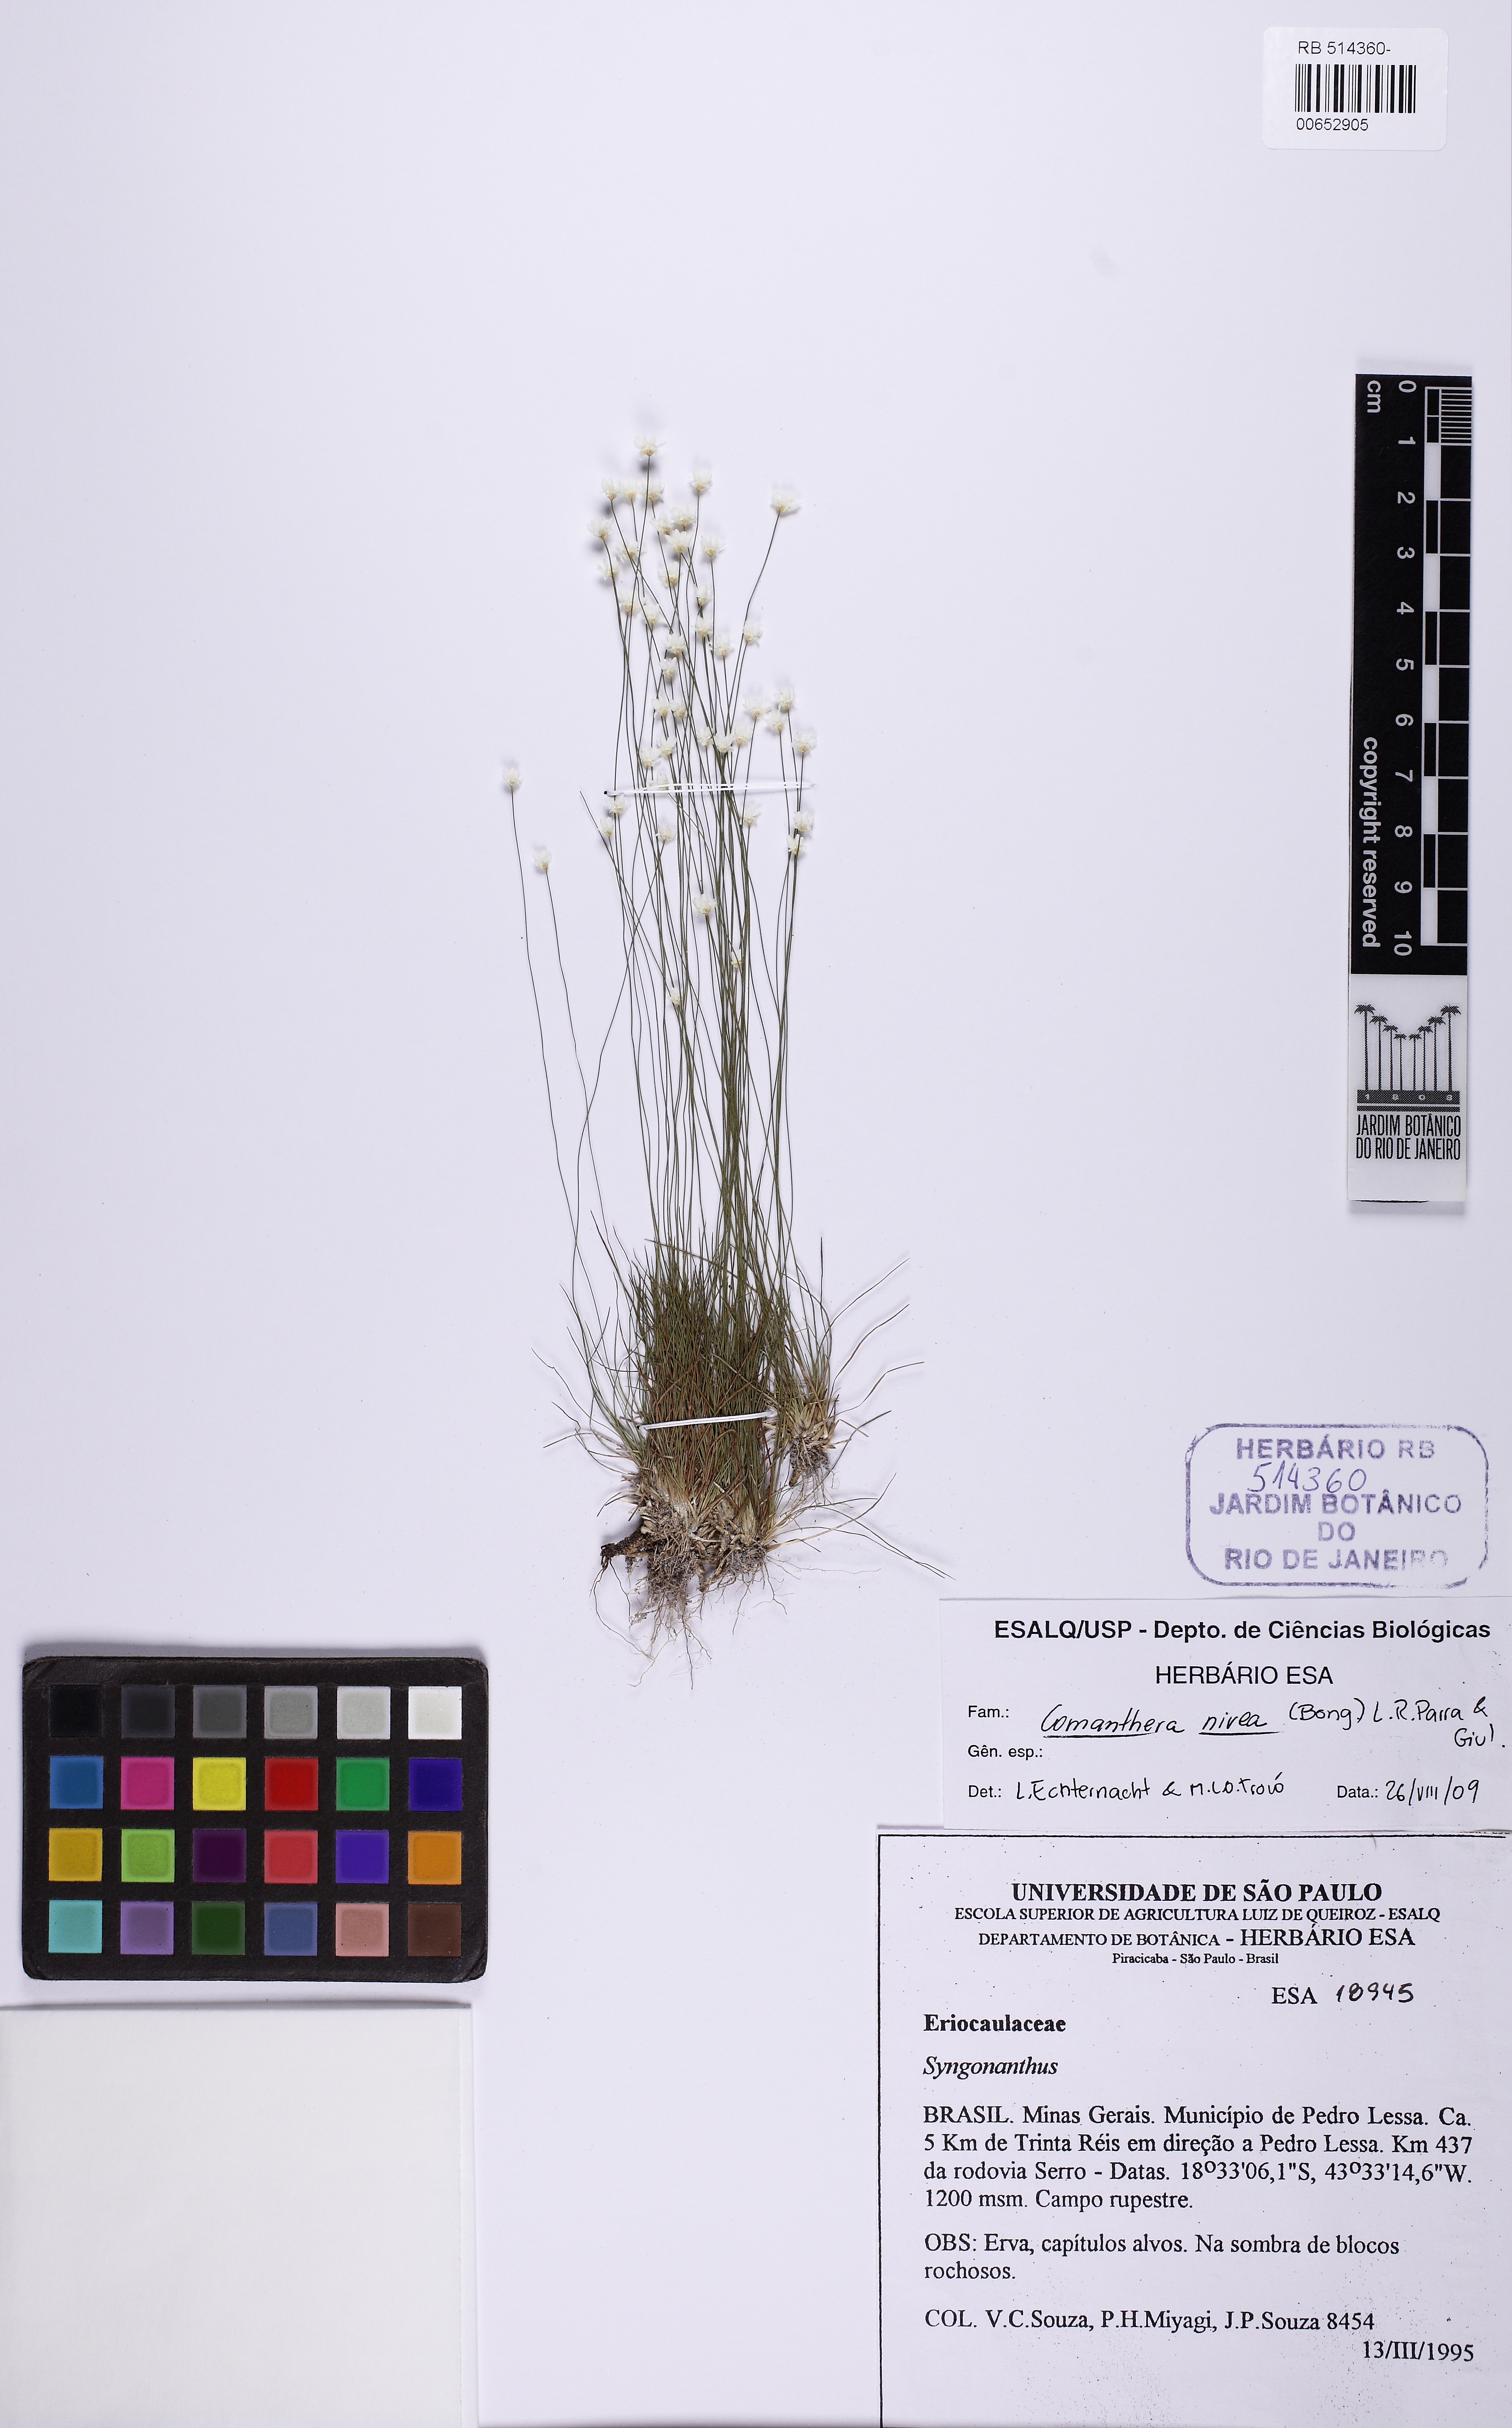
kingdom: Plantae
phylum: Tracheophyta
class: Liliopsida
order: Poales
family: Eriocaulaceae
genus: Comanthera
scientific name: Comanthera nivea
